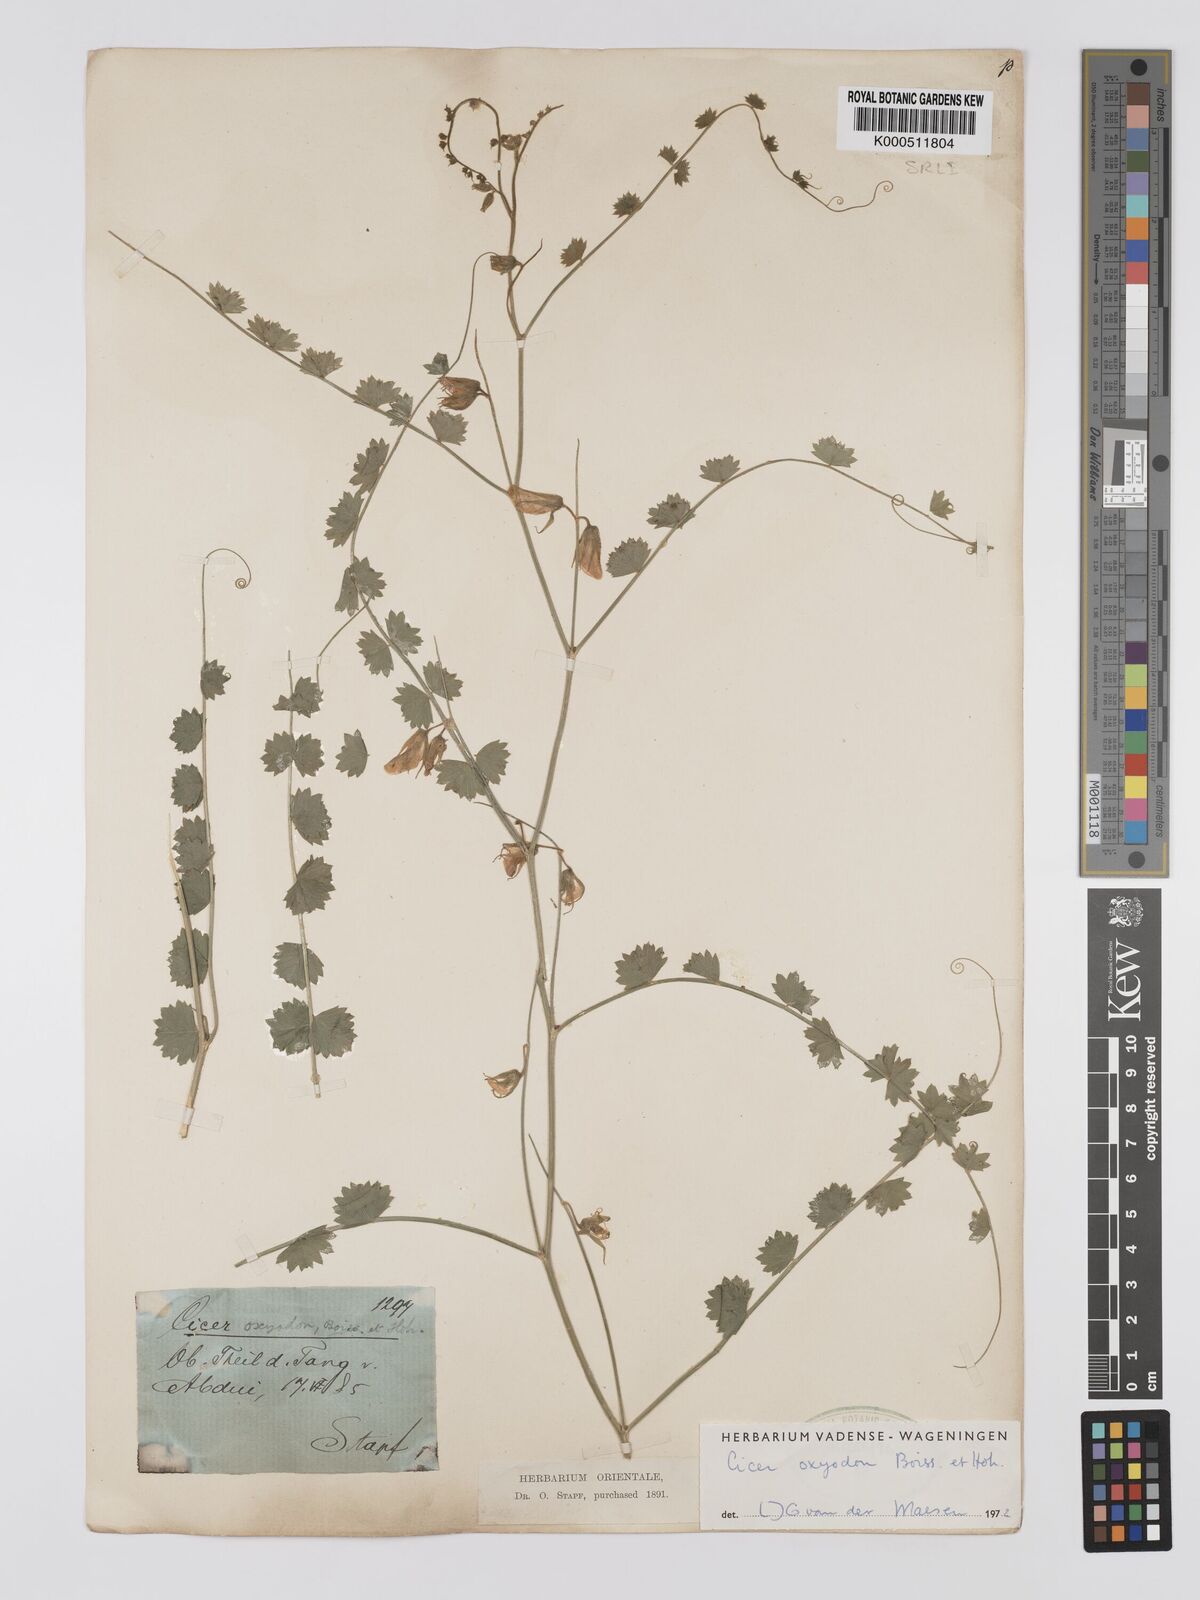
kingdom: Plantae
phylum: Tracheophyta
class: Magnoliopsida
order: Fabales
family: Fabaceae
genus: Cicer
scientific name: Cicer oxyodon
